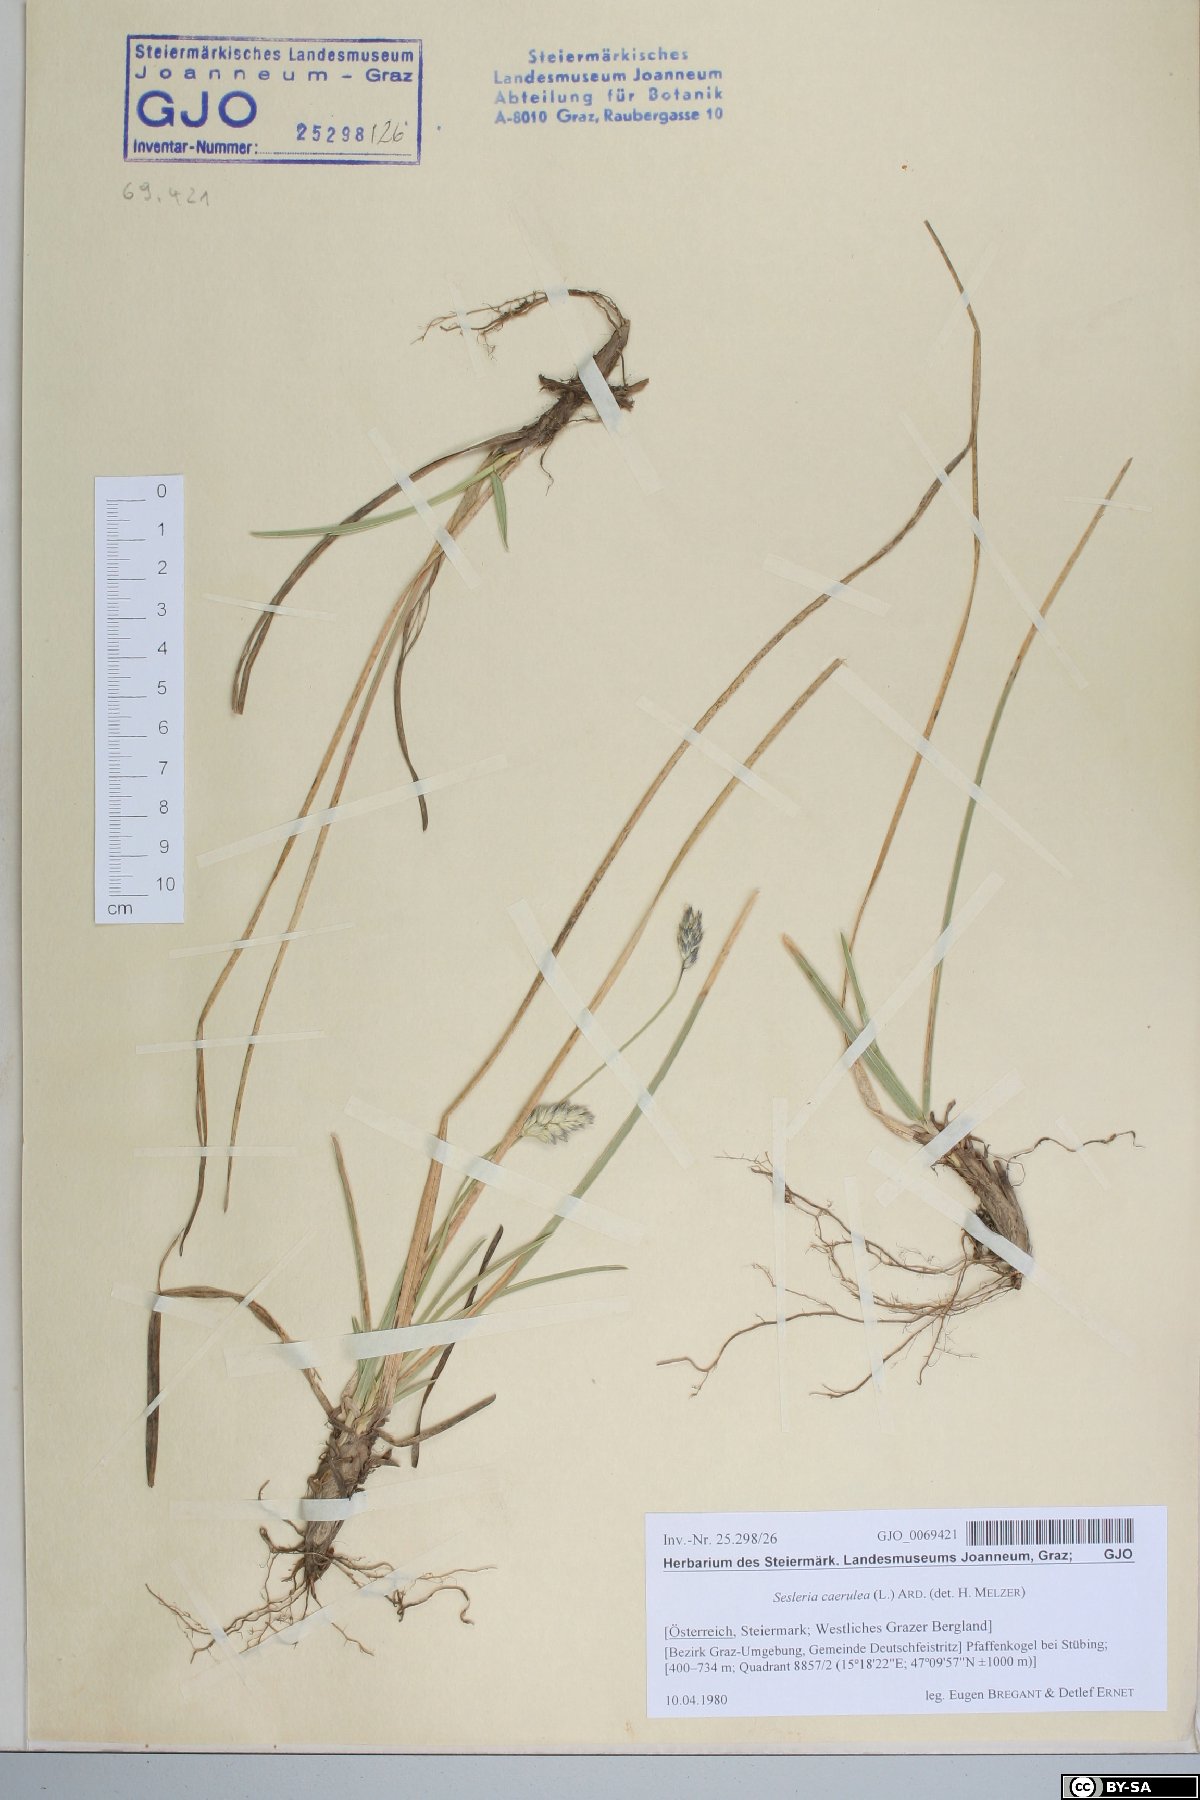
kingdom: Plantae
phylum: Tracheophyta
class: Liliopsida
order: Poales
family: Poaceae
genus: Sesleria
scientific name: Sesleria caerulea
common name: Blue moor-grass
